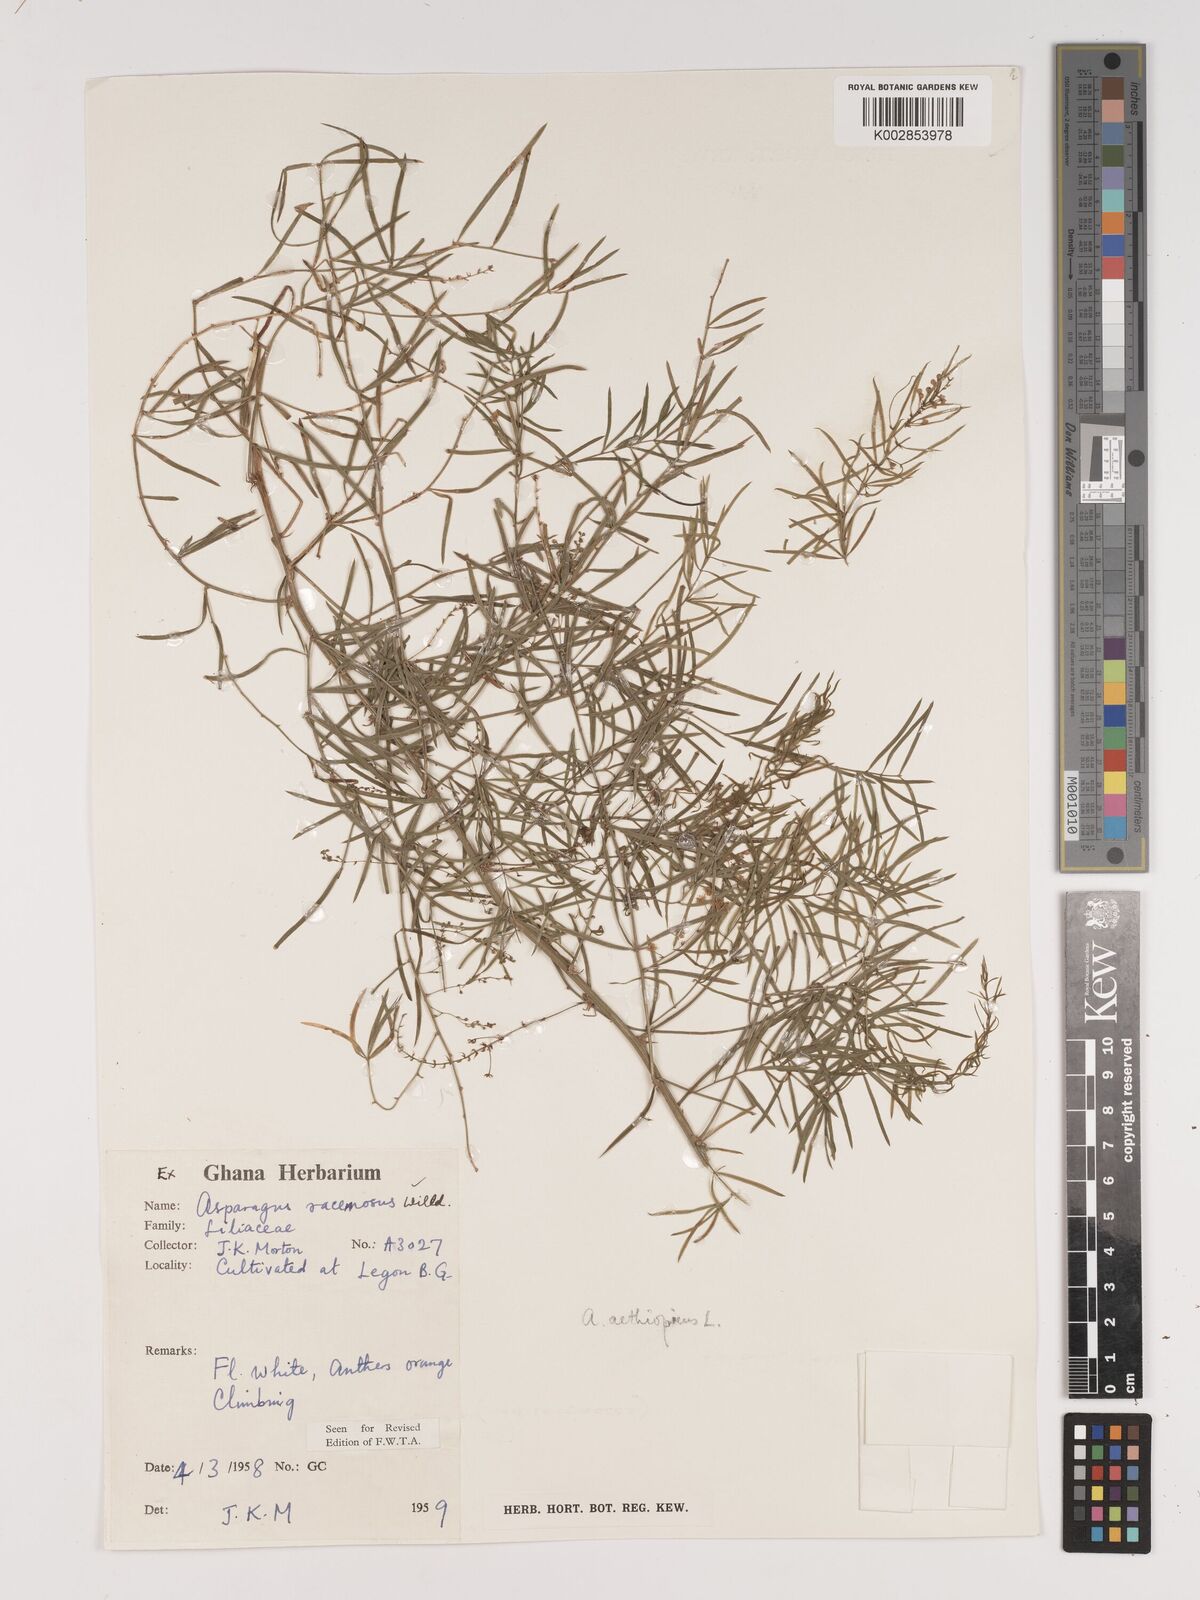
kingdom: Plantae
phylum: Tracheophyta
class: Liliopsida
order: Asparagales
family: Asparagaceae
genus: Asparagus
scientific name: Asparagus aethiopicus
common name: Sprenger's asparagus fern
